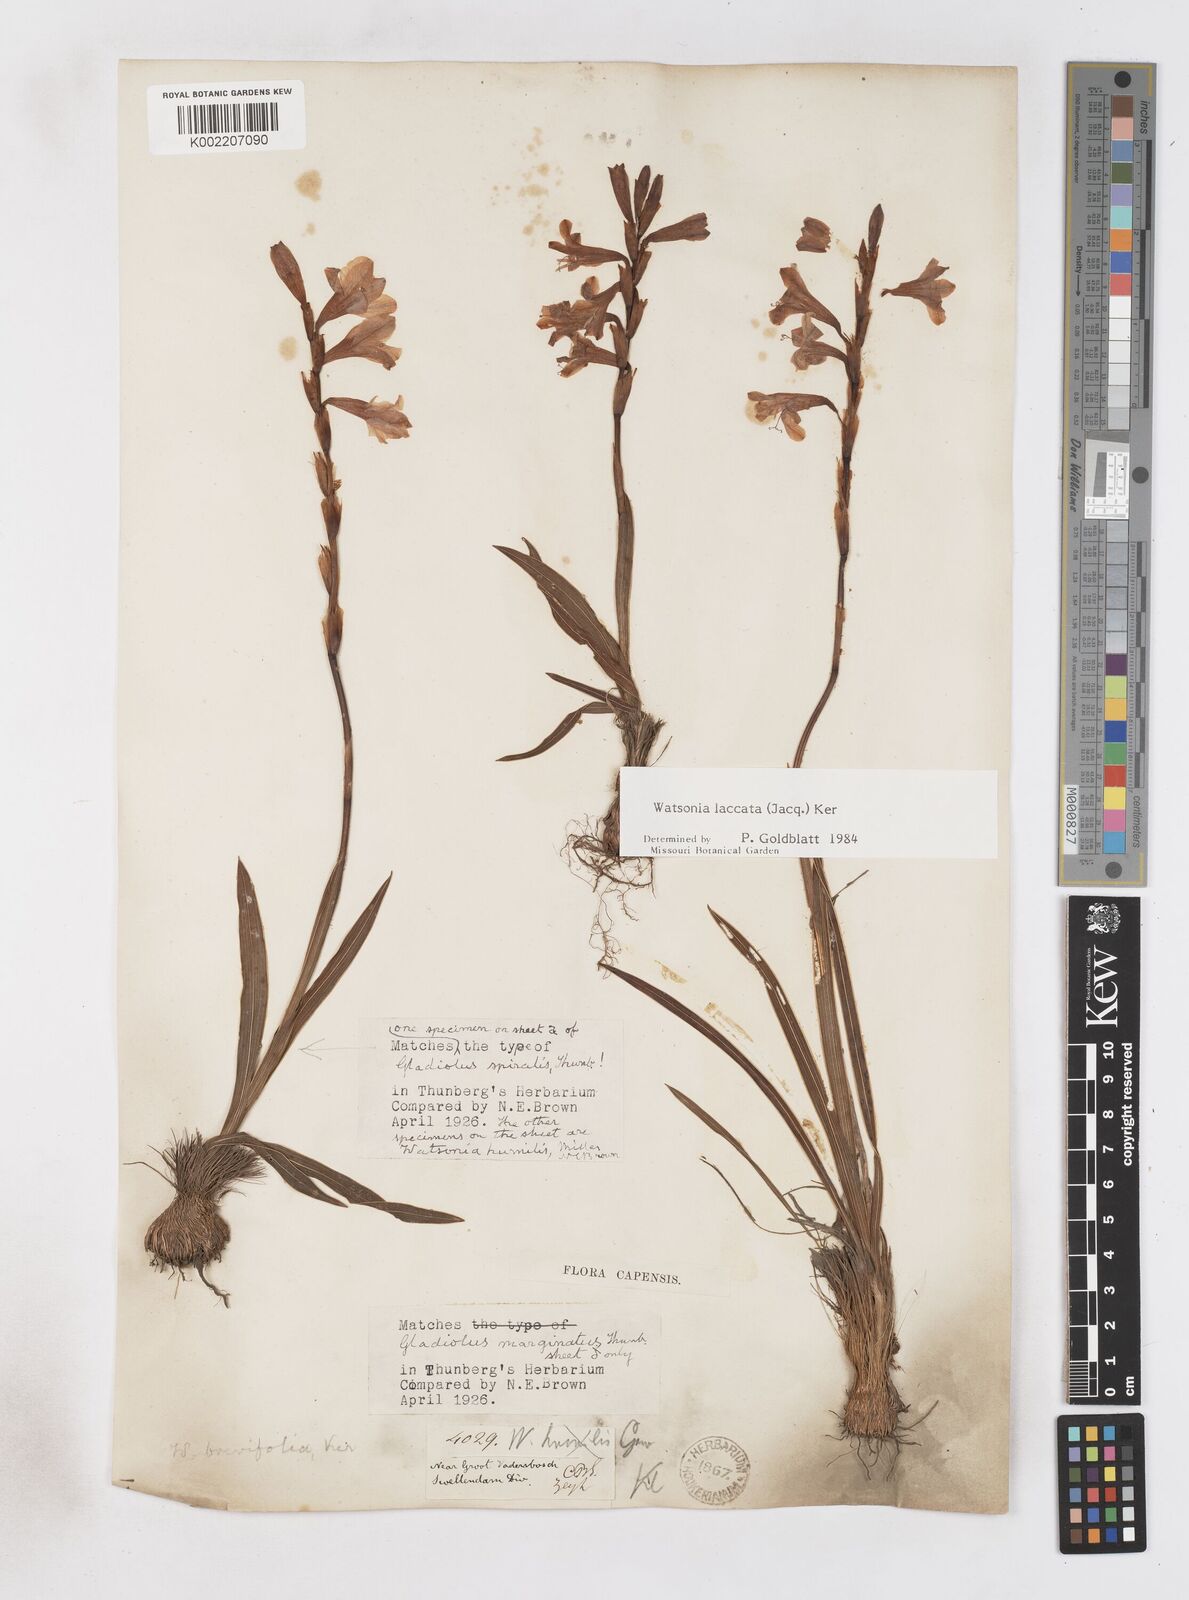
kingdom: Plantae
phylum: Tracheophyta
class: Liliopsida
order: Asparagales
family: Iridaceae
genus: Watsonia
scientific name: Watsonia laccata
